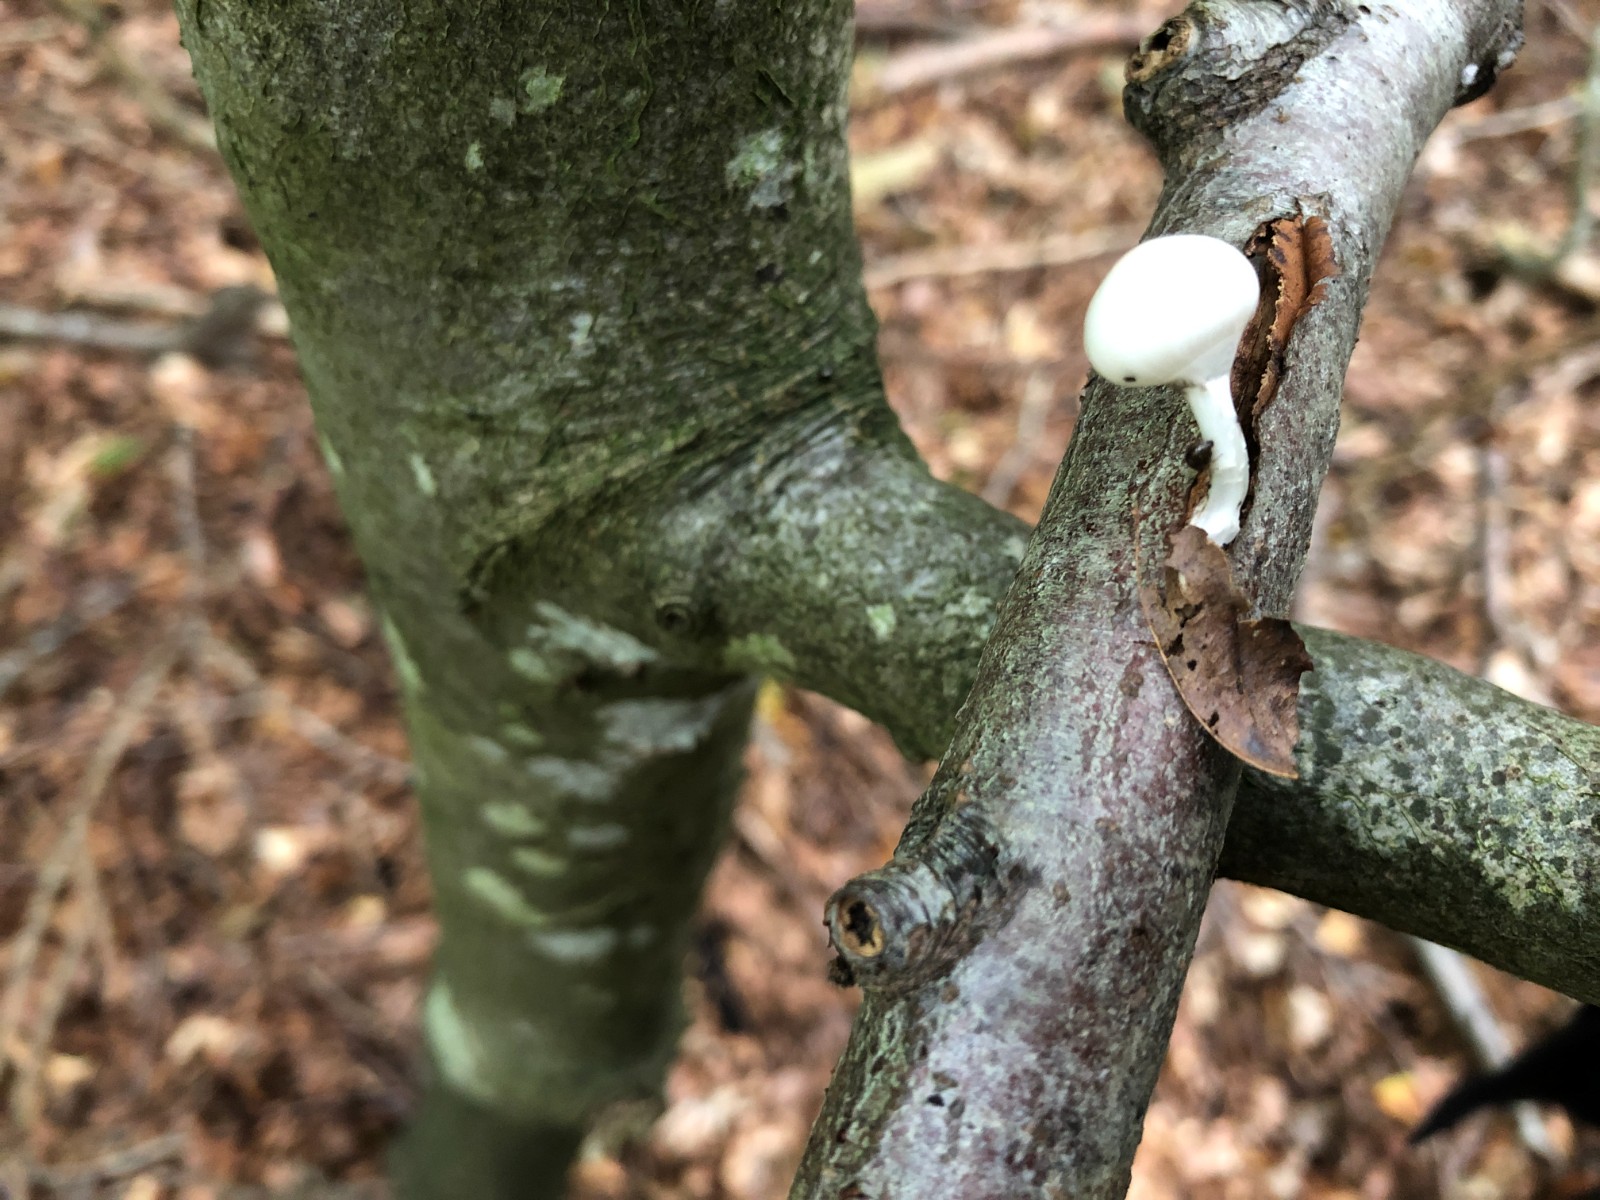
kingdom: Fungi
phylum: Basidiomycota
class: Agaricomycetes
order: Agaricales
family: Physalacriaceae
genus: Mucidula
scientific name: Mucidula mucida
